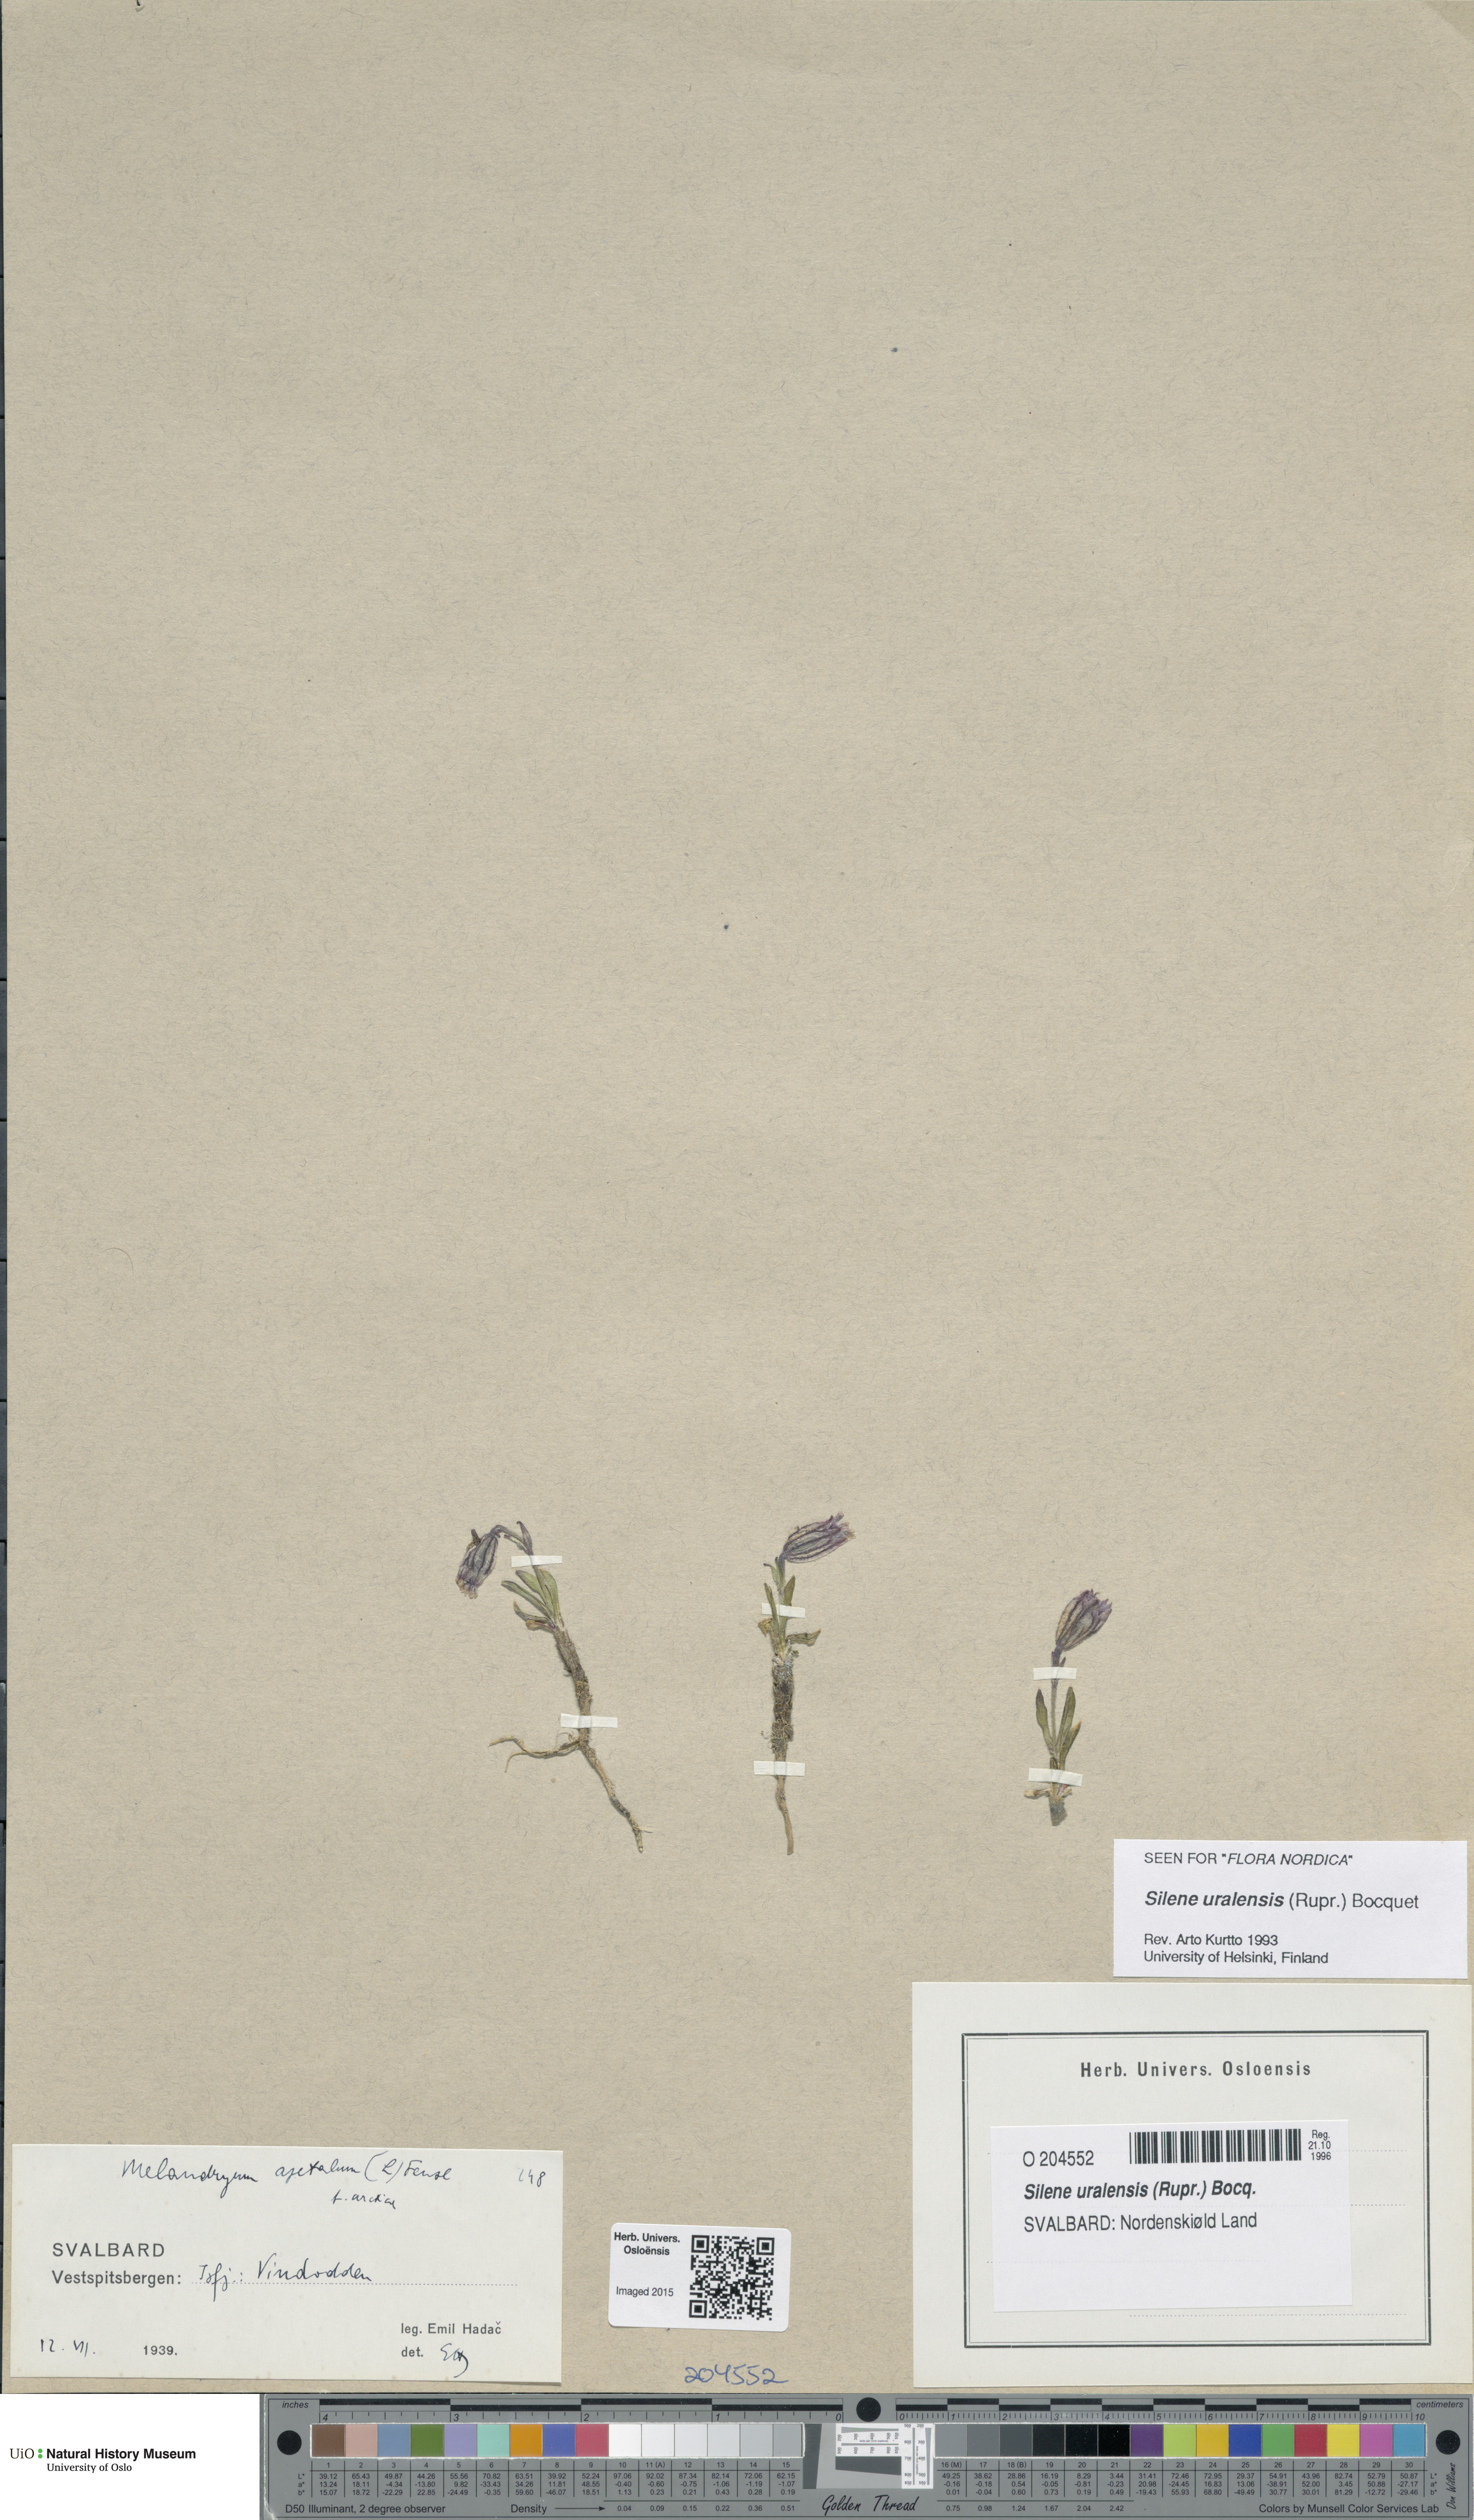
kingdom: Plantae
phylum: Tracheophyta
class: Magnoliopsida
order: Caryophyllales
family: Caryophyllaceae
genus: Silene
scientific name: Silene uralensis
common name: Nodding campion
